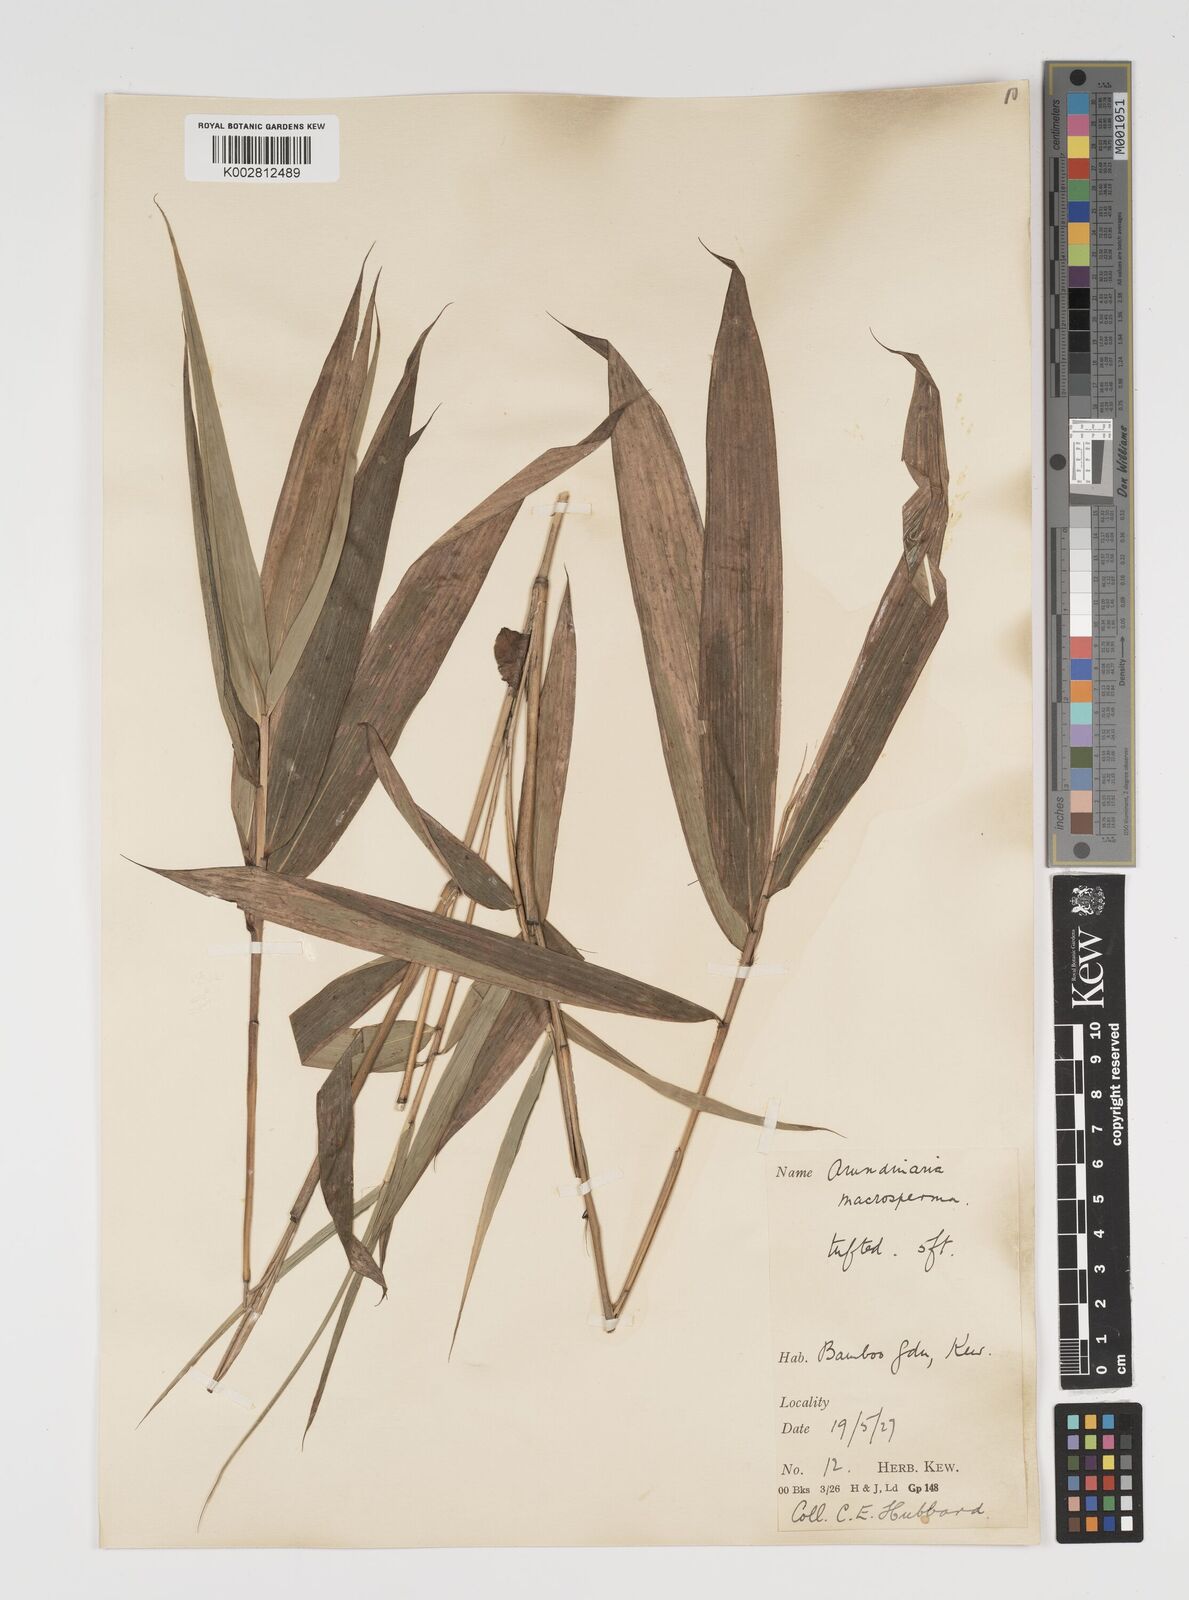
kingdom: Plantae
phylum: Tracheophyta
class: Liliopsida
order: Poales
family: Poaceae
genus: Pseudosasa
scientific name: Pseudosasa amabilis
